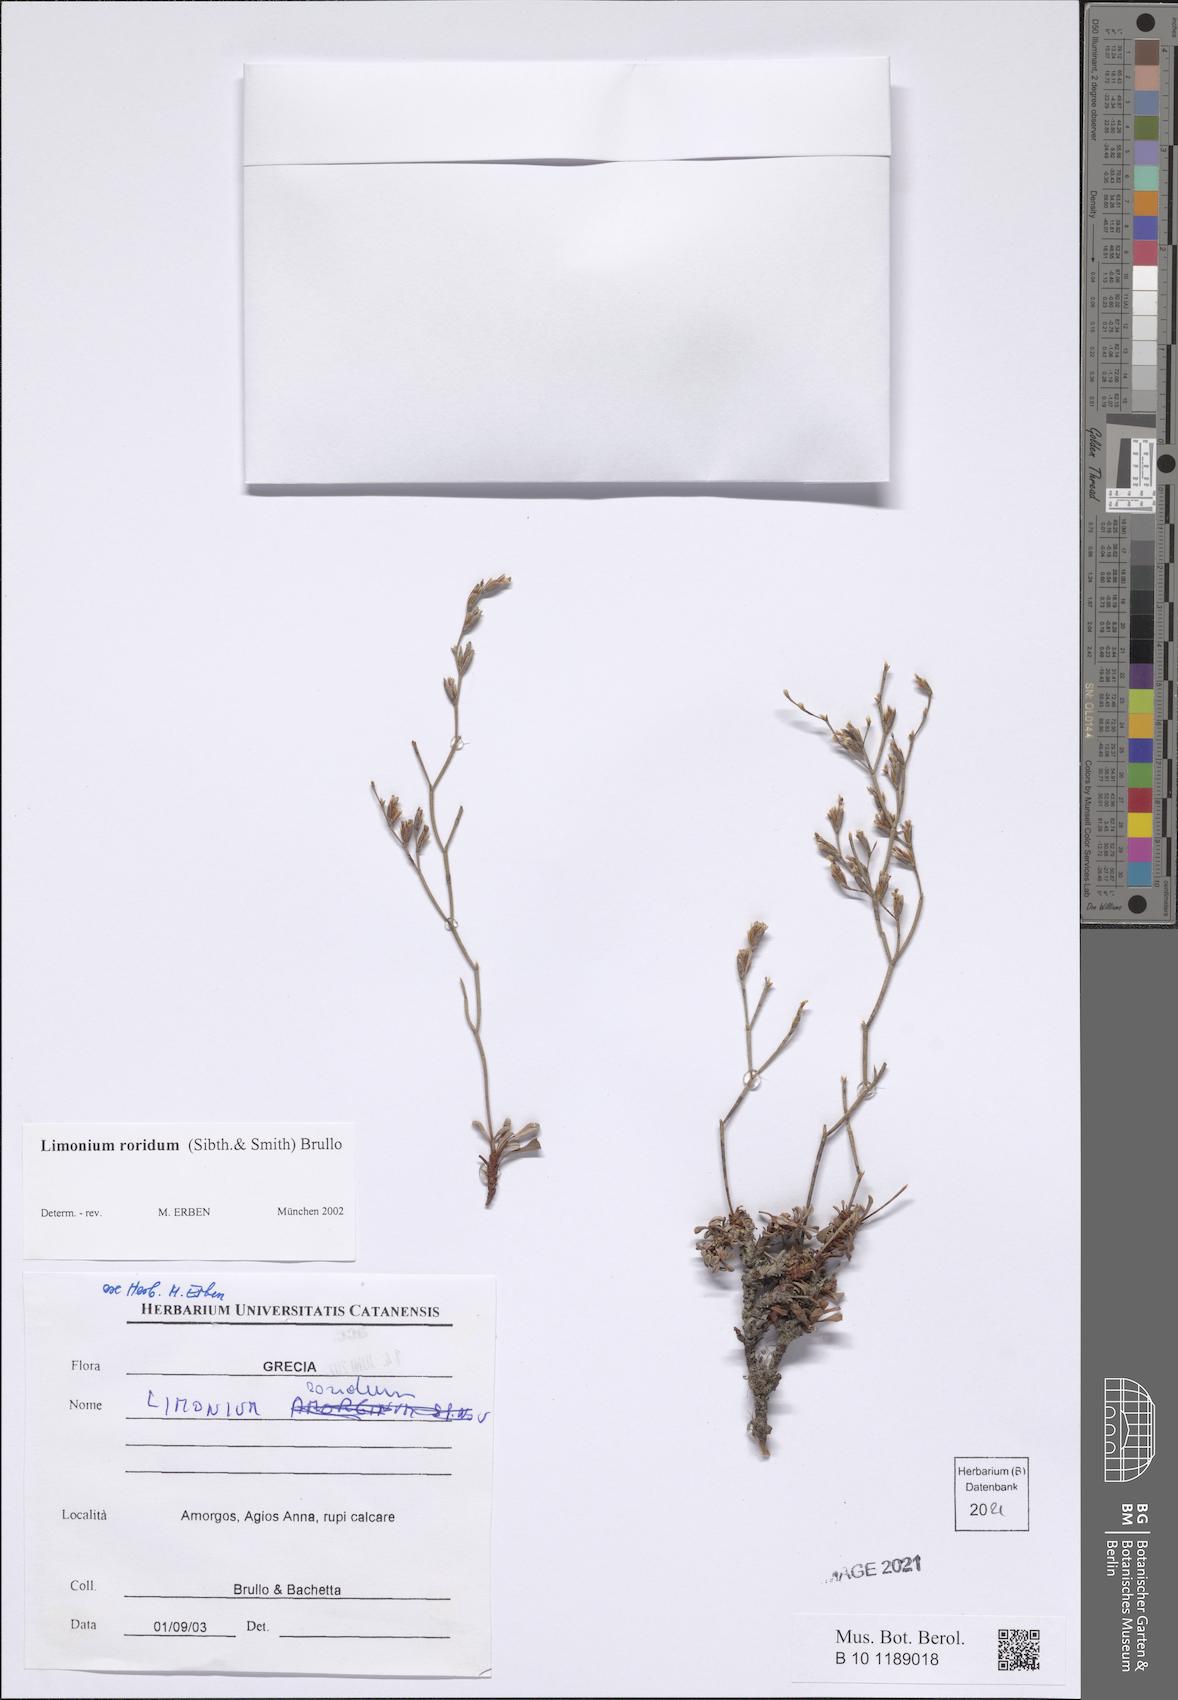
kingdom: Plantae
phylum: Tracheophyta
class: Magnoliopsida
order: Caryophyllales
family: Plumbaginaceae
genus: Limonium
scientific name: Limonium roridum
